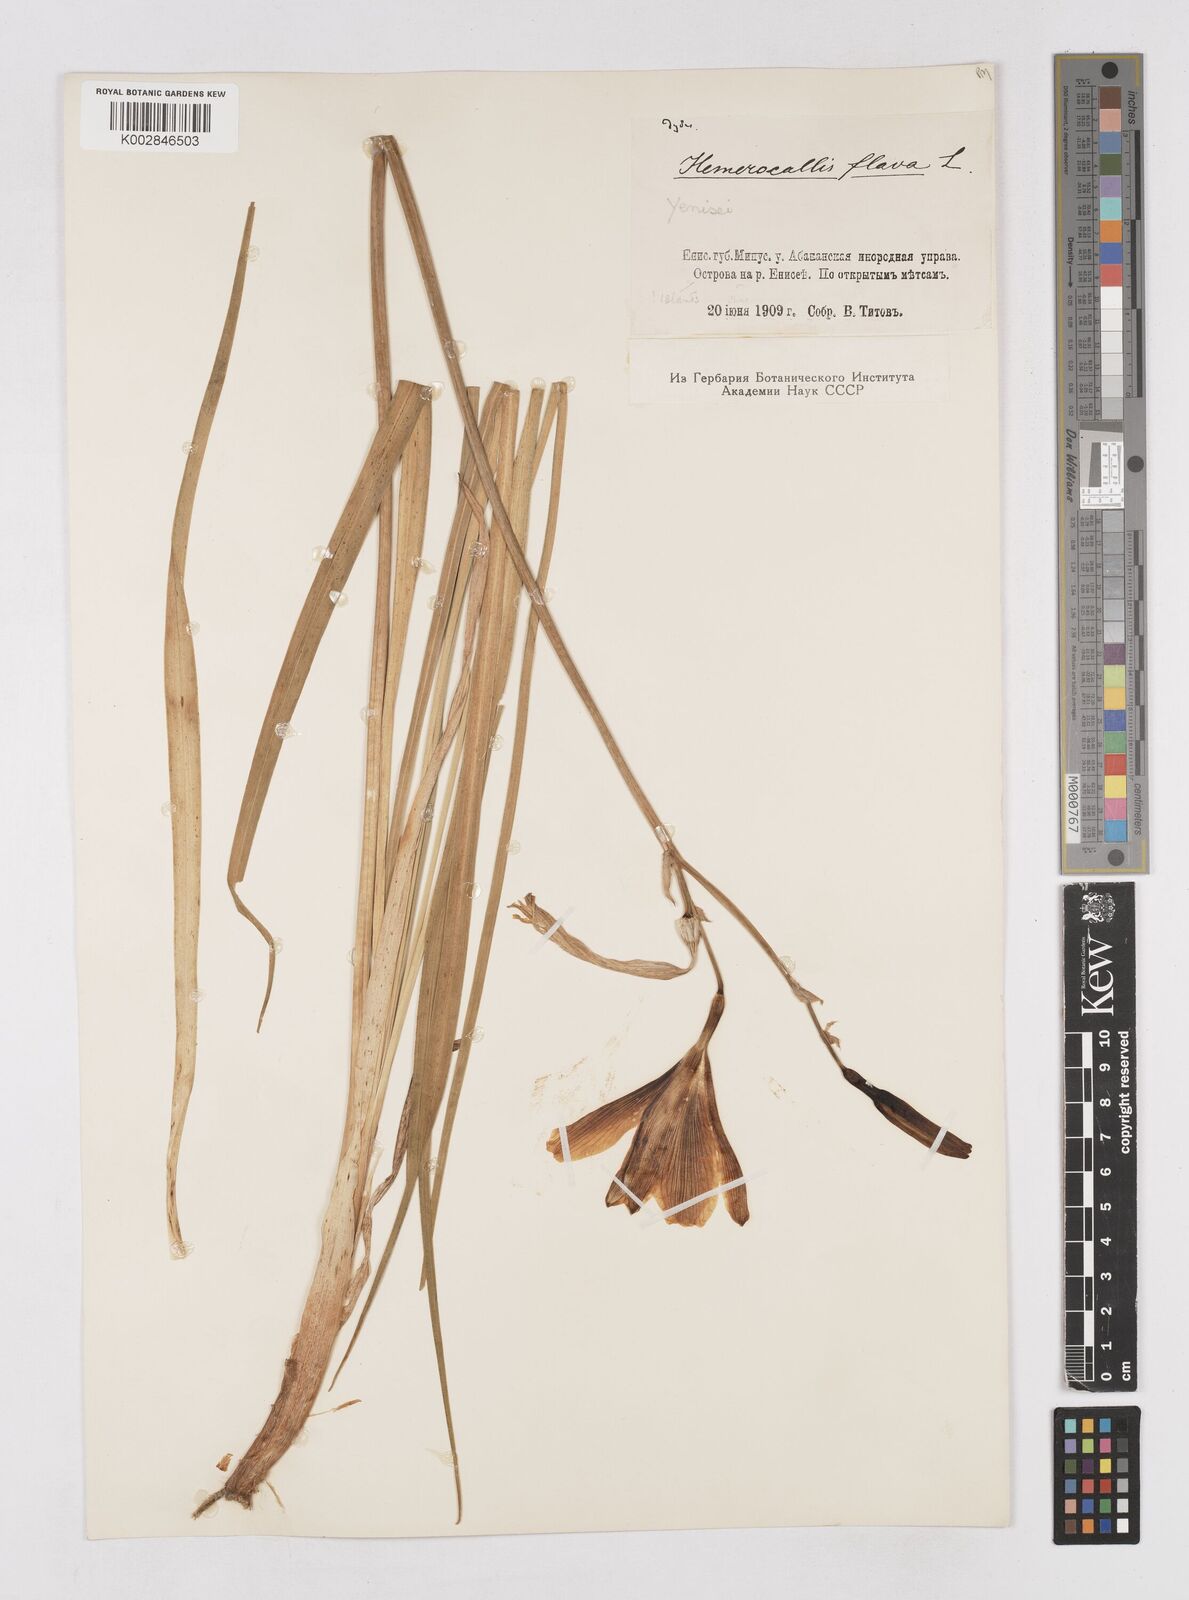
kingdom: Plantae
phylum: Tracheophyta
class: Liliopsida
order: Asparagales
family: Asphodelaceae
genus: Hemerocallis
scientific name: Hemerocallis lilioasphodelus
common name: Yellow day-lily
